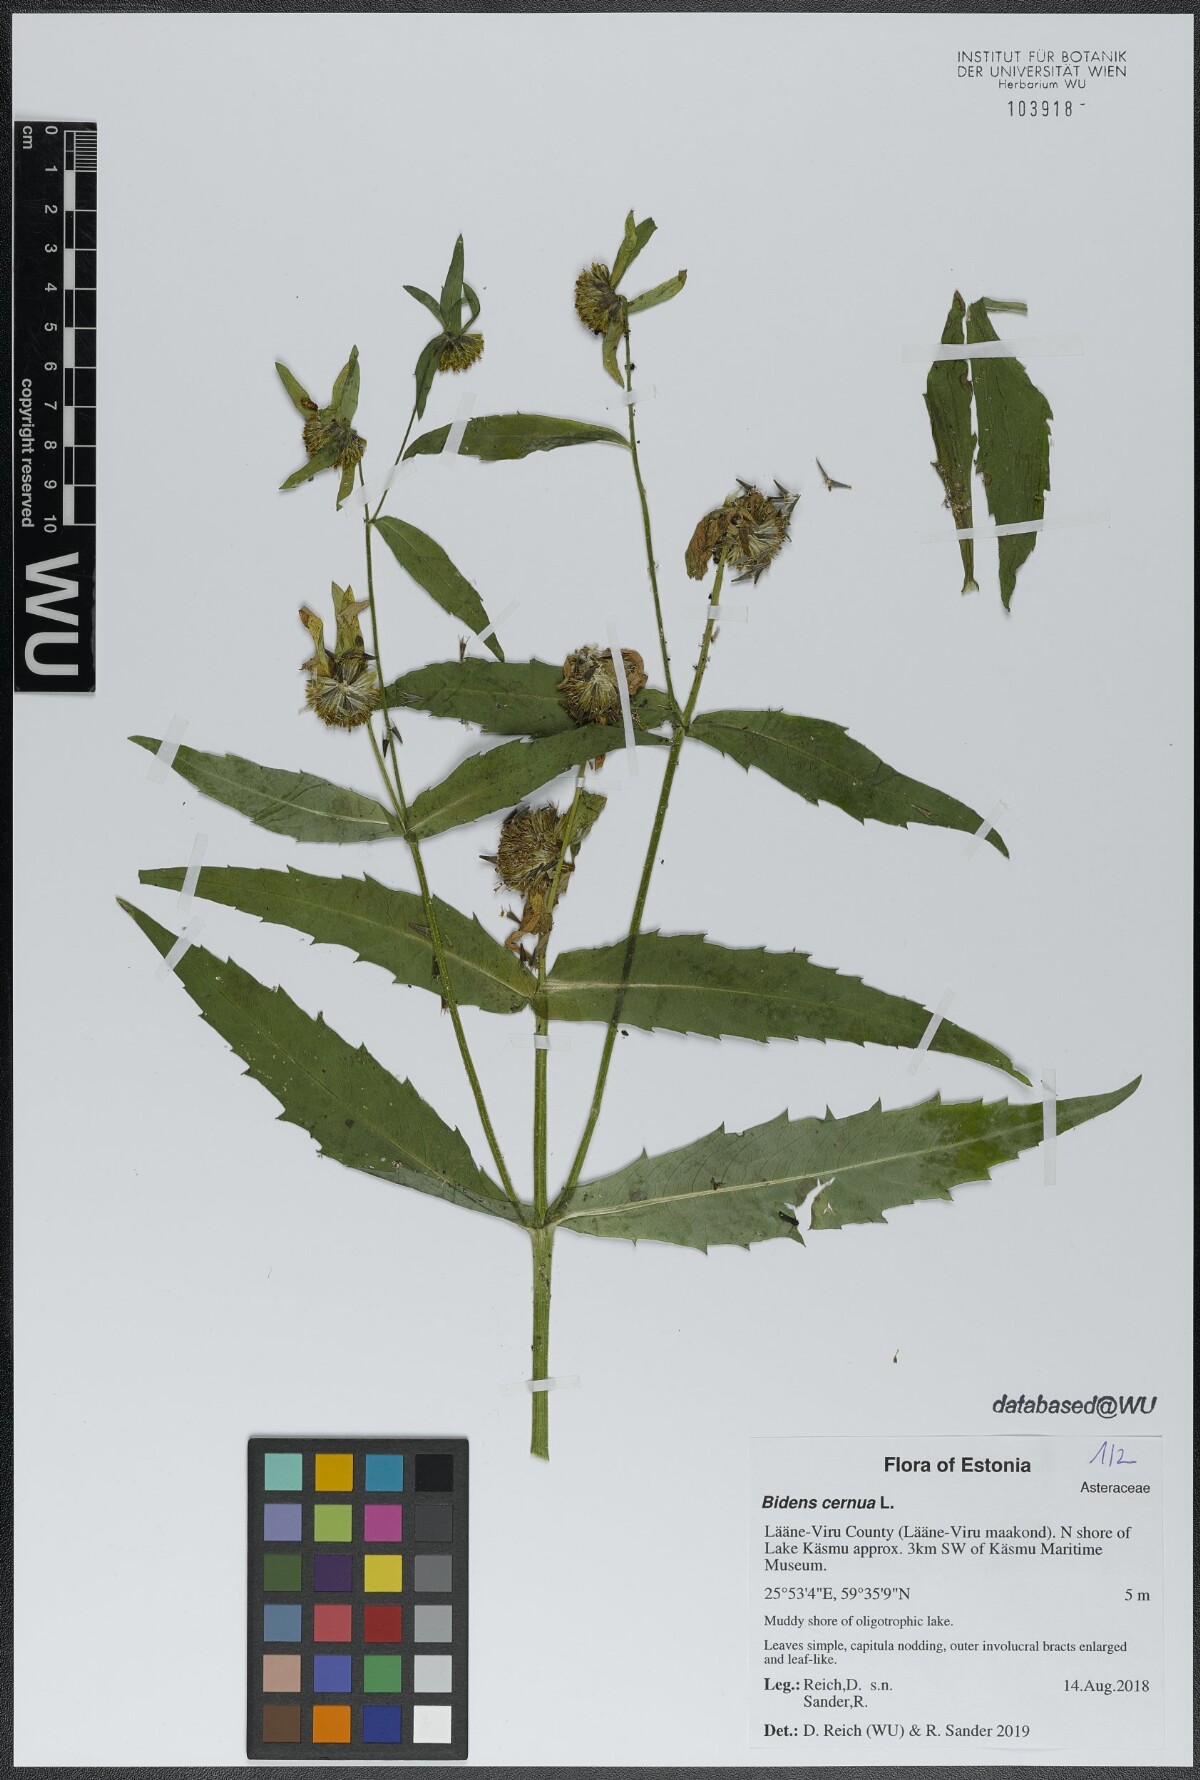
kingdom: Plantae
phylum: Tracheophyta
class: Magnoliopsida
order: Asterales
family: Asteraceae
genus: Bidens
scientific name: Bidens cernua
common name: Nodding bur-marigold
